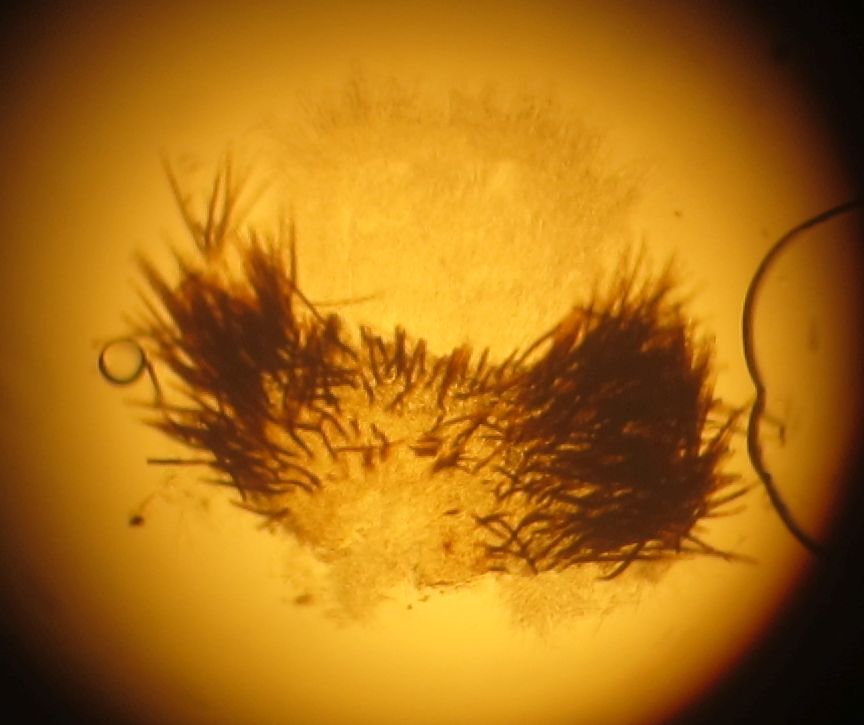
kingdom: Fungi
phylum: Ascomycota
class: Leotiomycetes
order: Helotiales
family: Solenopeziaceae
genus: Trichopezizella
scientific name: Trichopezizella rubroguttata
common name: ravhåret frynseskive
